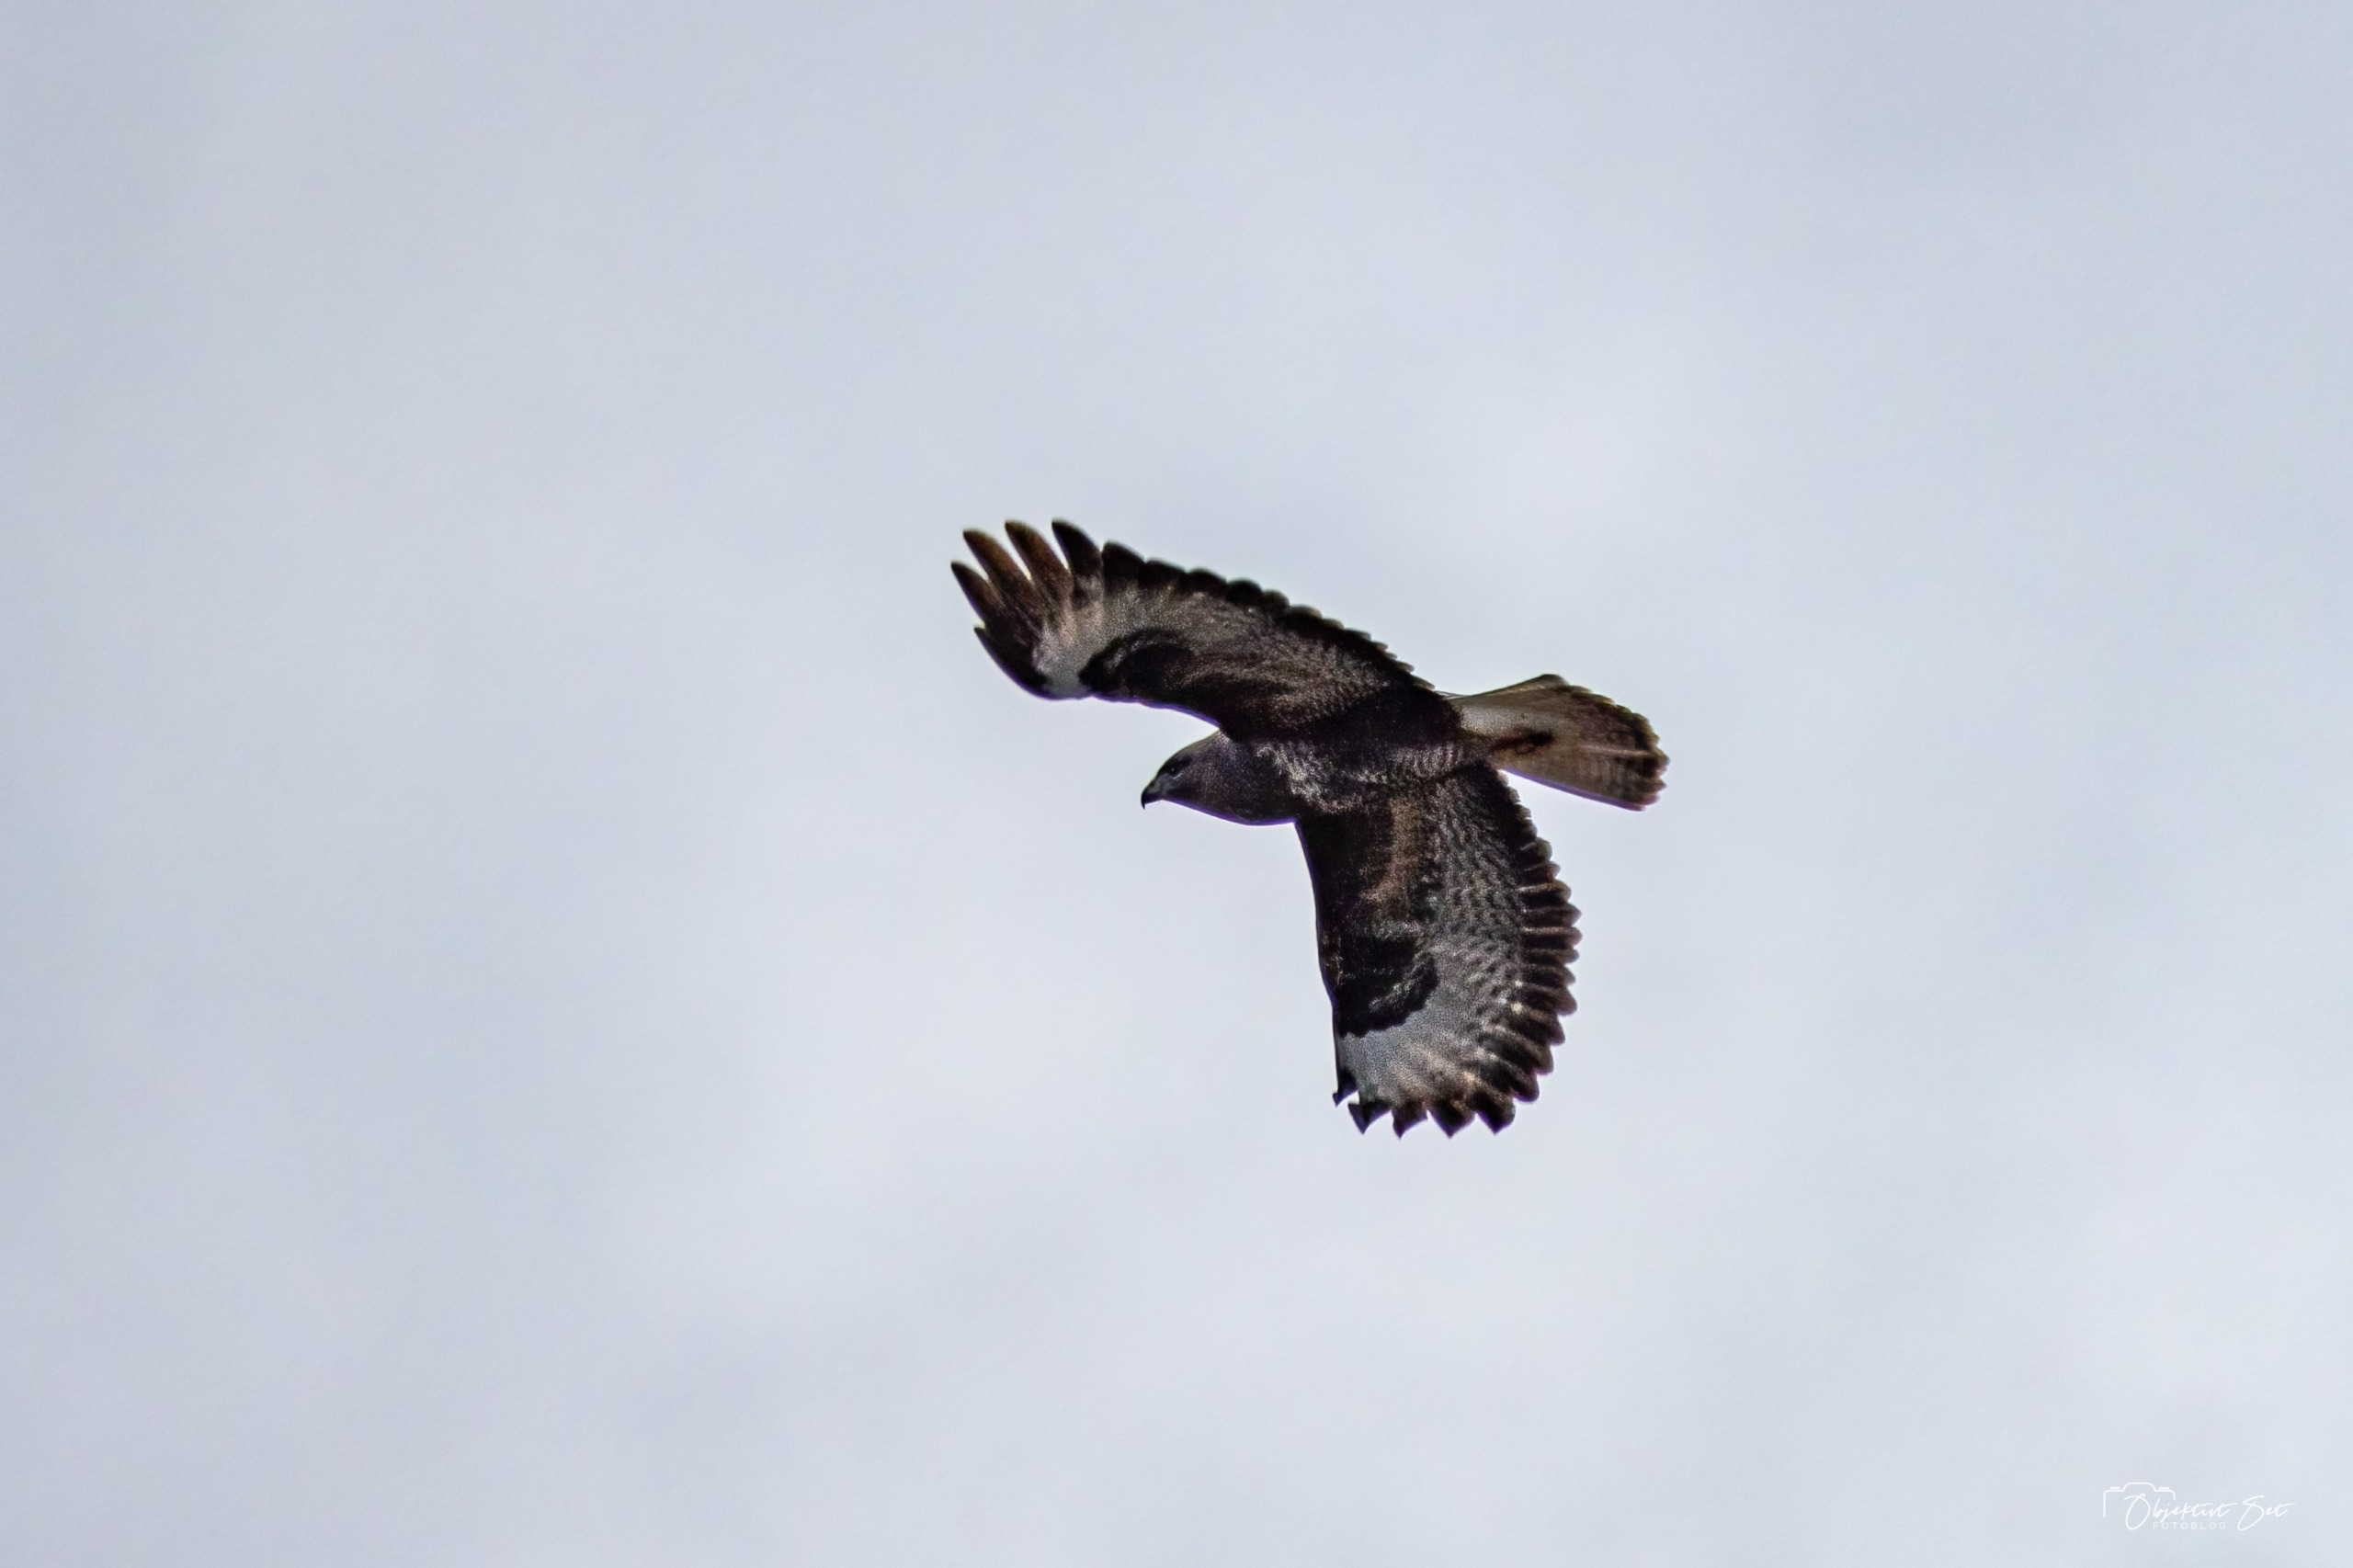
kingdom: Animalia
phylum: Chordata
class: Aves
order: Accipitriformes
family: Accipitridae
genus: Buteo
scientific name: Buteo buteo
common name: Musvåge
